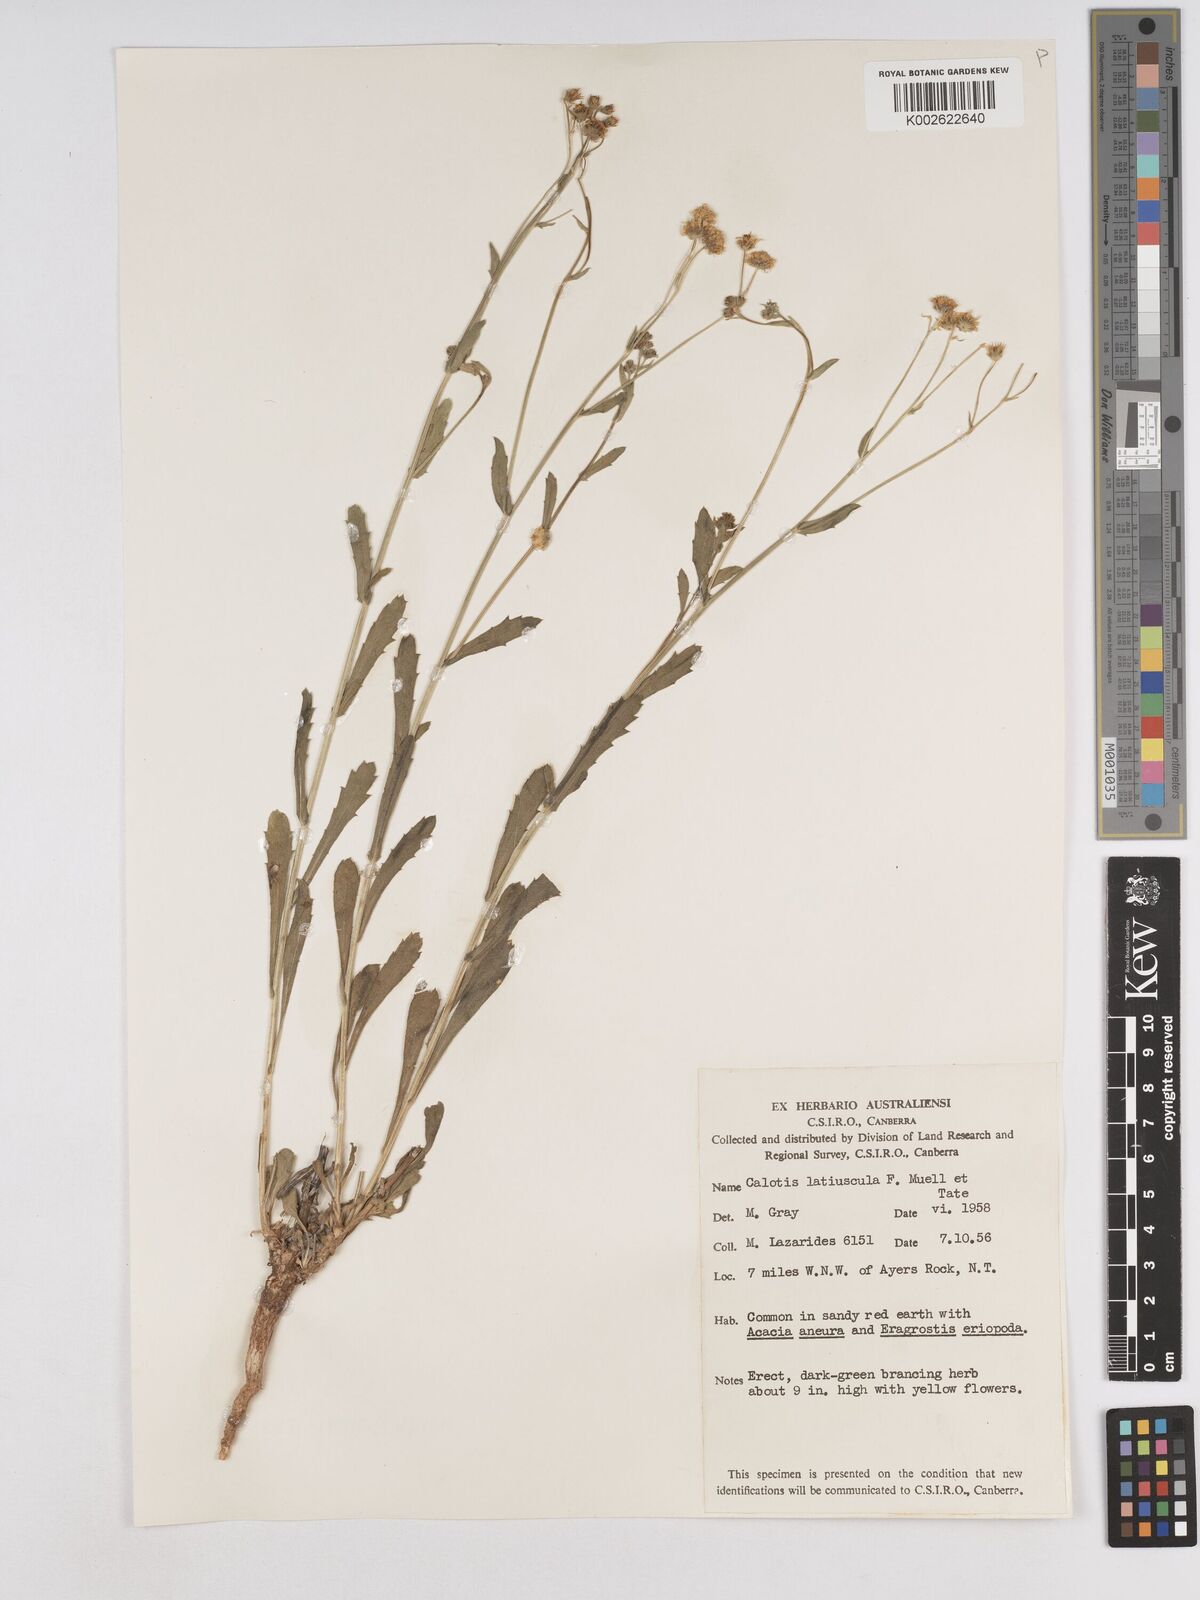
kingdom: Plantae
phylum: Tracheophyta
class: Magnoliopsida
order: Asterales
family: Asteraceae
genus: Calotis
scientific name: Calotis latiuscula
